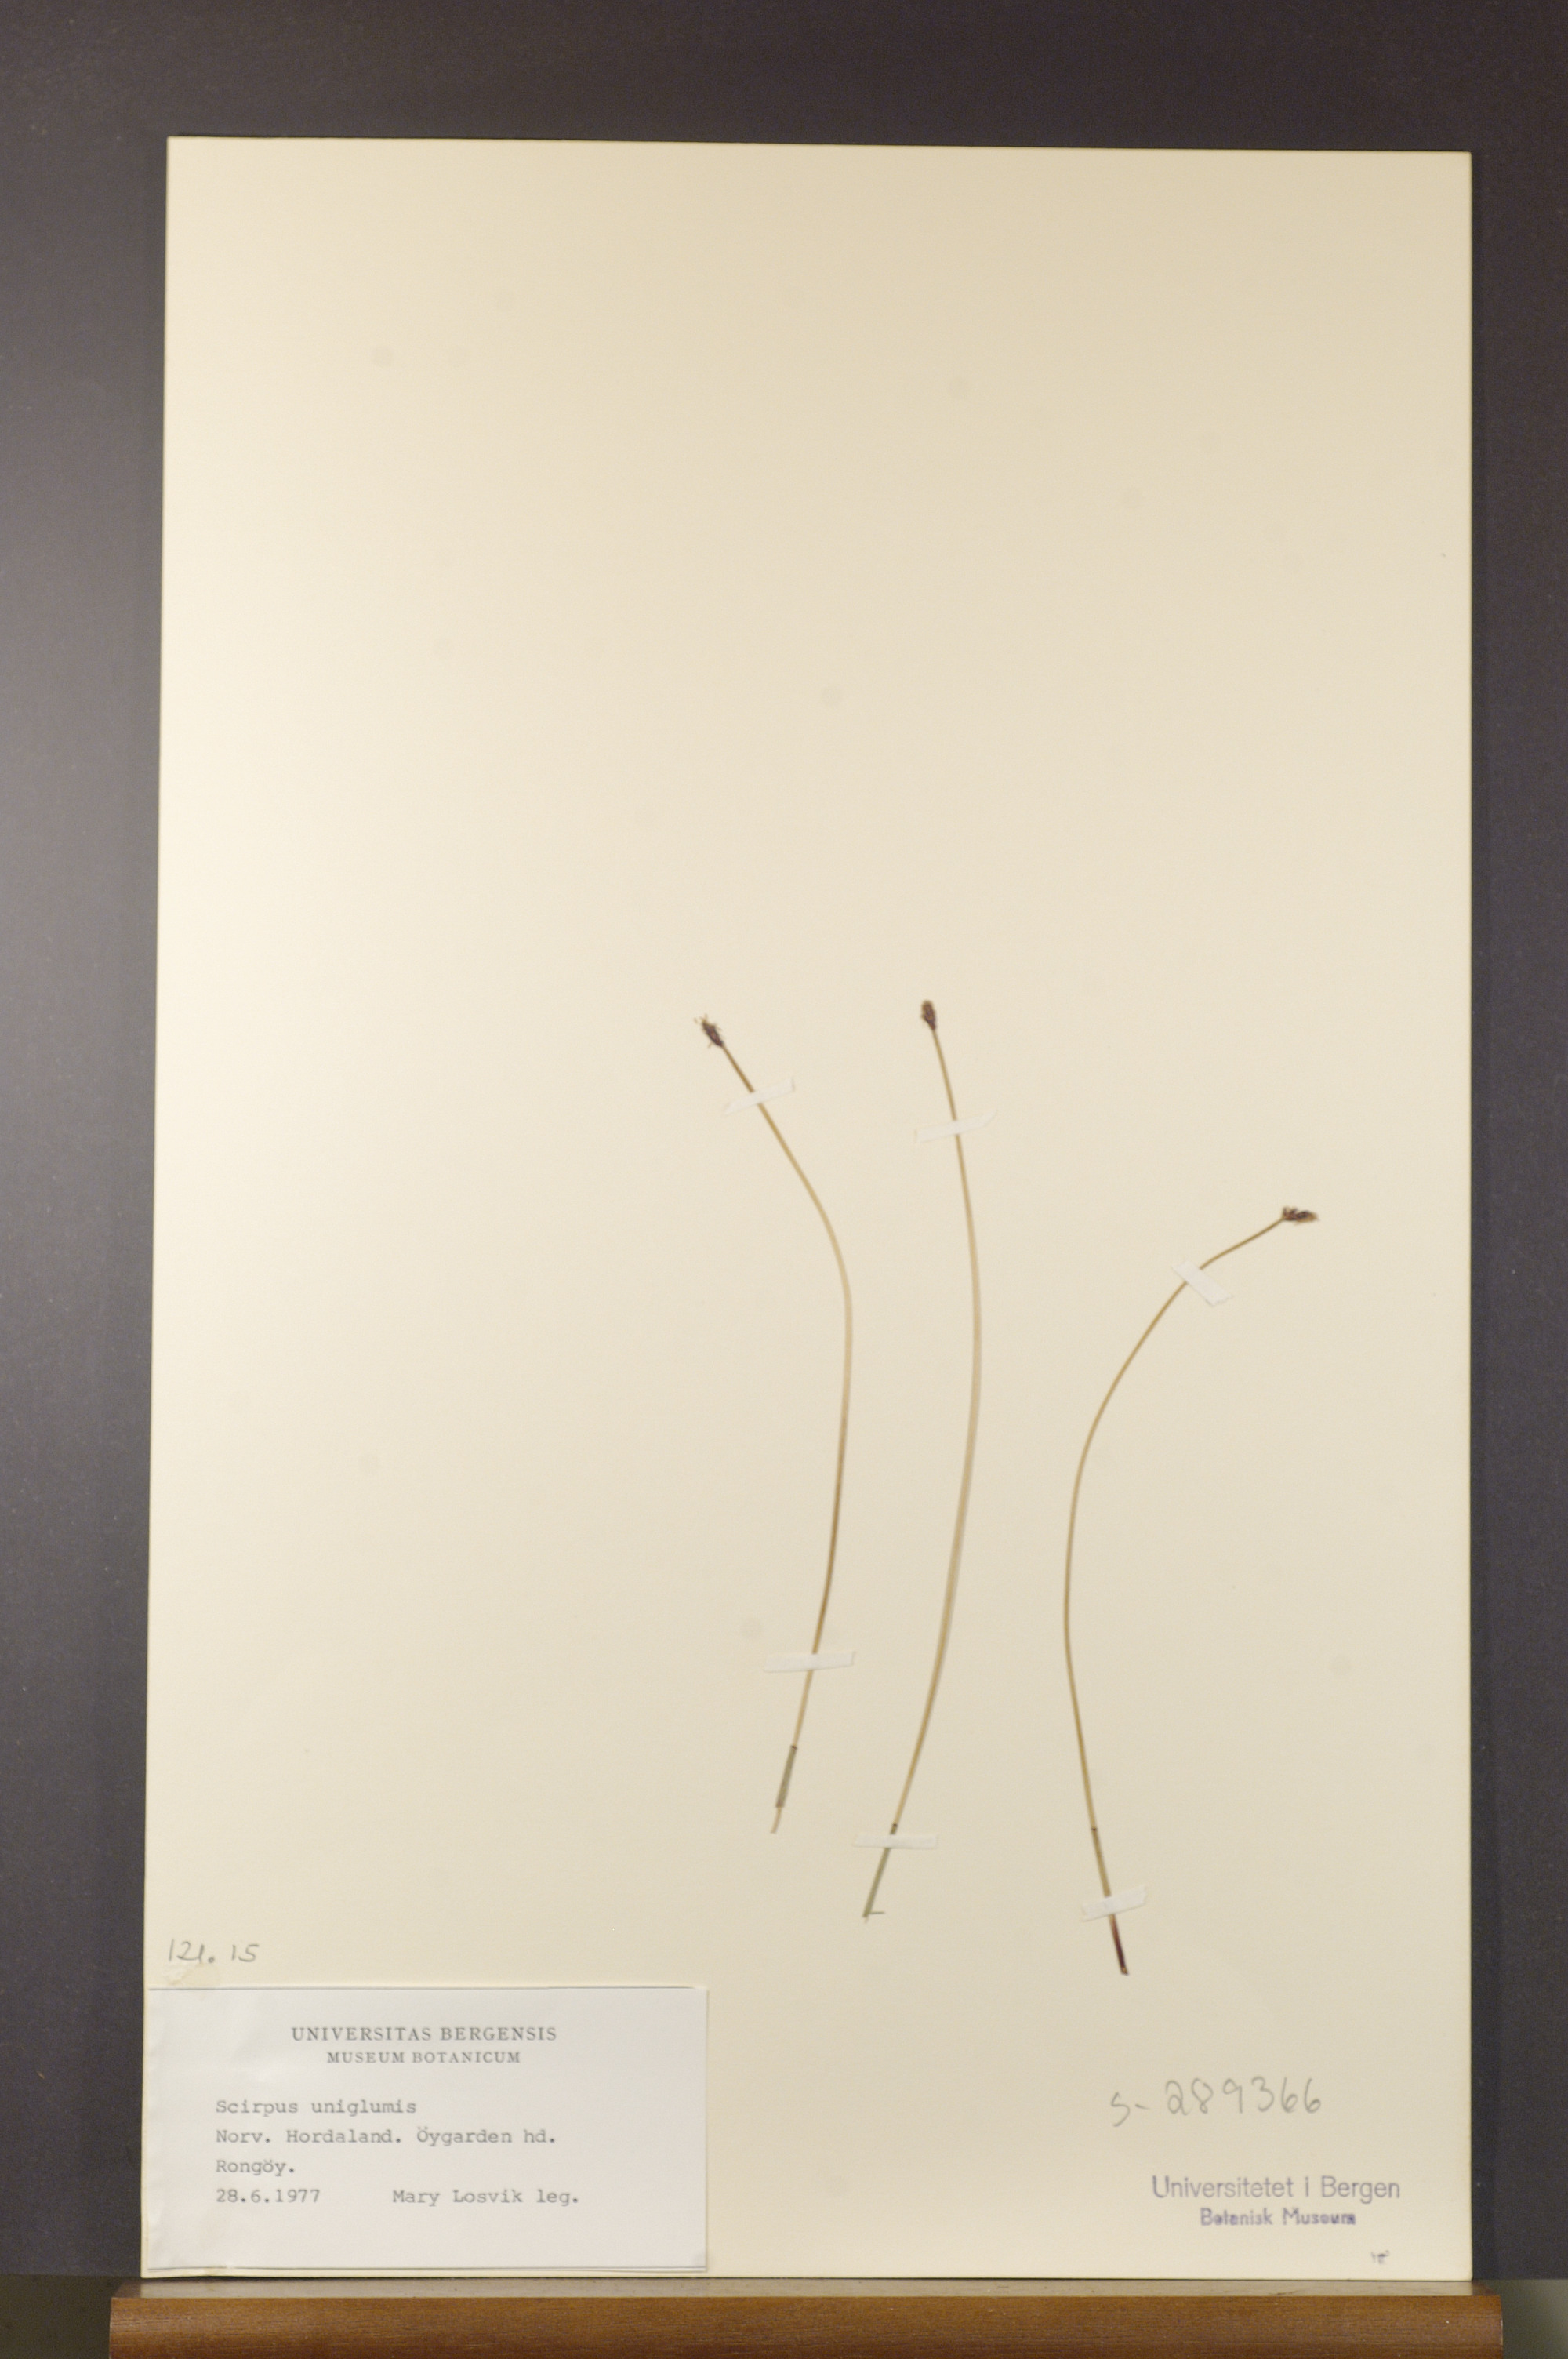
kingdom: Plantae
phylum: Tracheophyta
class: Liliopsida
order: Poales
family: Cyperaceae
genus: Eleocharis
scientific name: Eleocharis uniglumis
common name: Slender spike-rush
